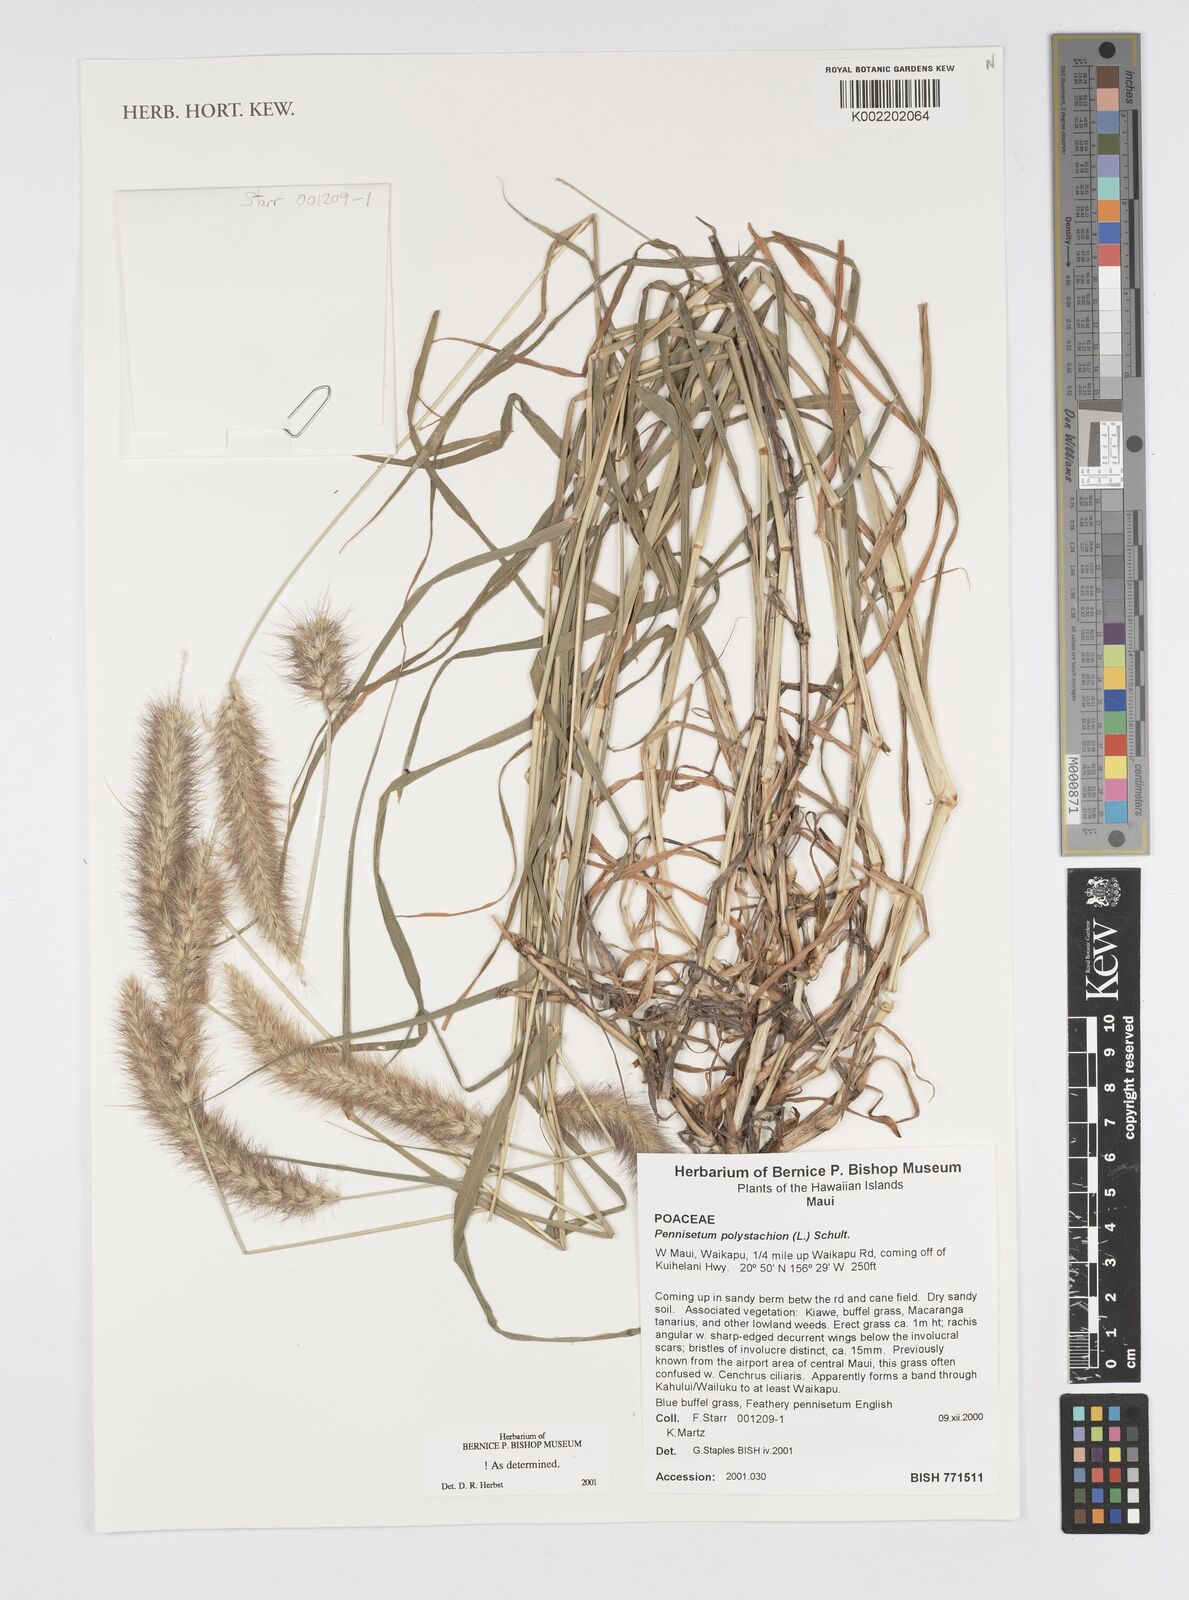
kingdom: Plantae
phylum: Tracheophyta
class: Liliopsida
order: Poales
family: Poaceae
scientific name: Poaceae
